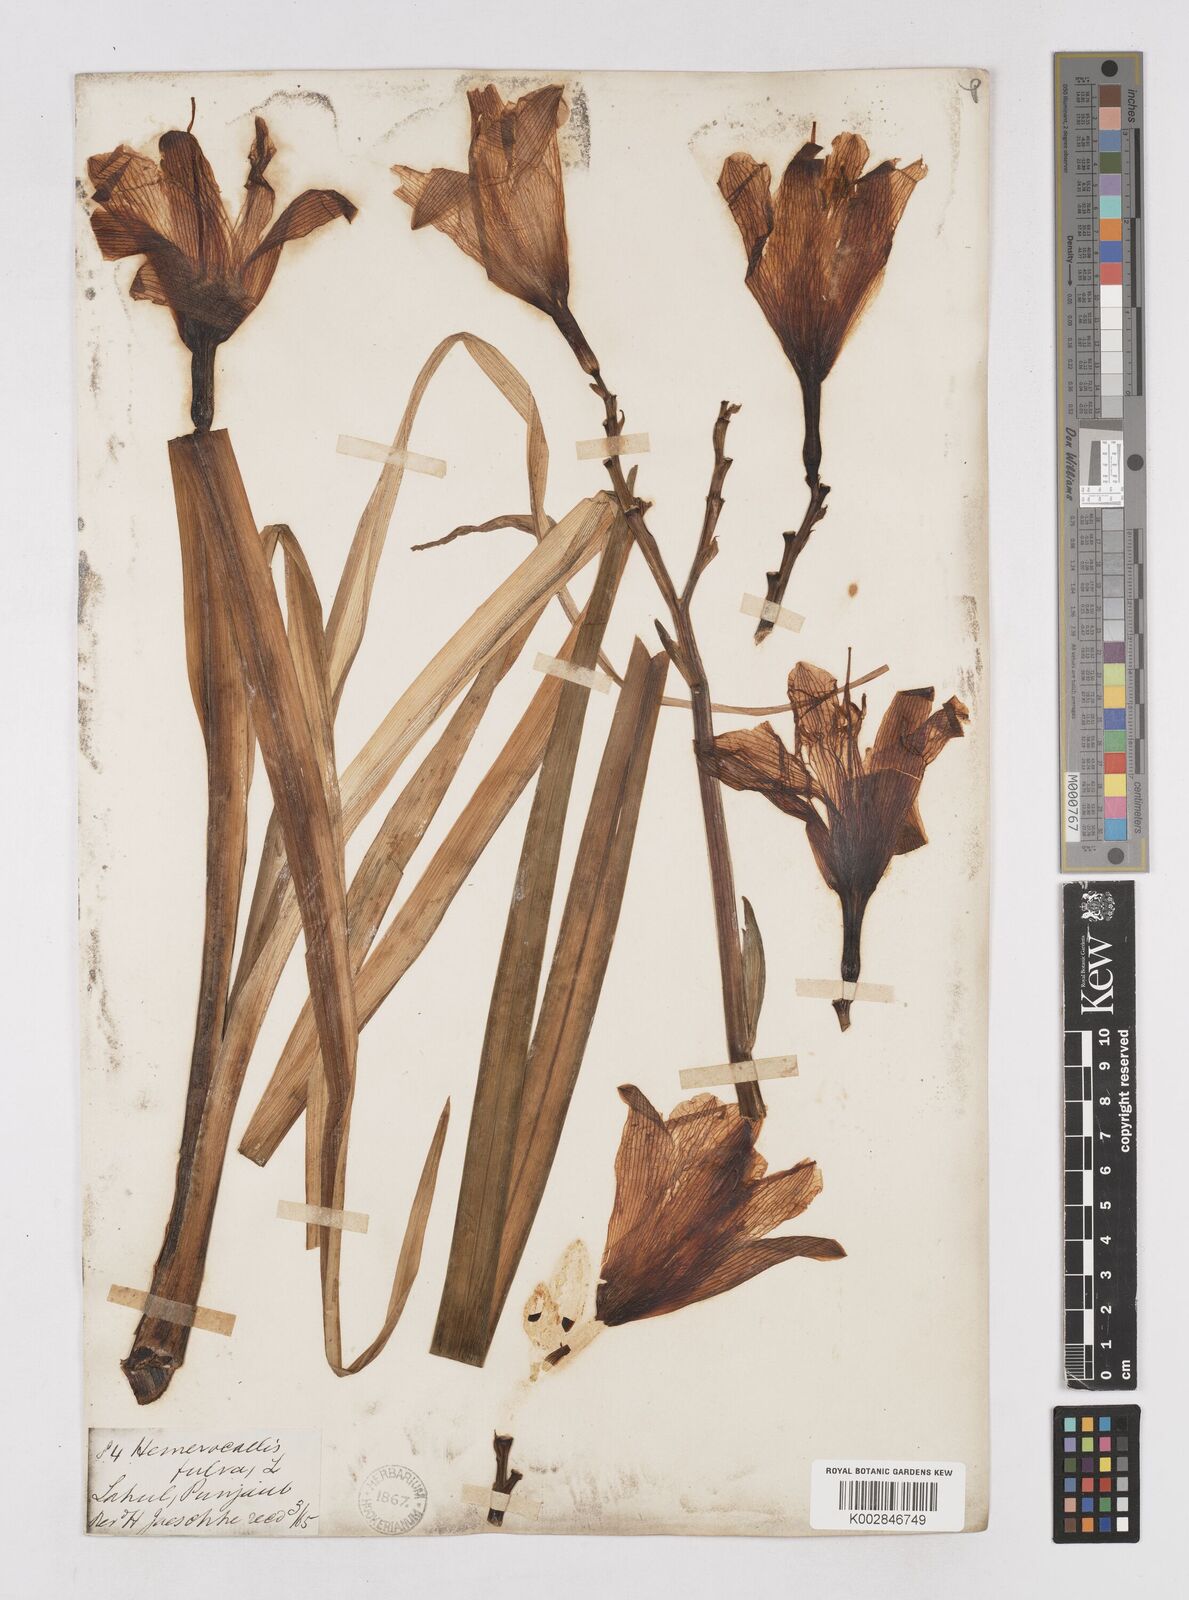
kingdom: Plantae
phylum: Tracheophyta
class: Liliopsida
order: Asparagales
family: Asphodelaceae
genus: Hemerocallis
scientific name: Hemerocallis fulva
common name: Orange day-lily
